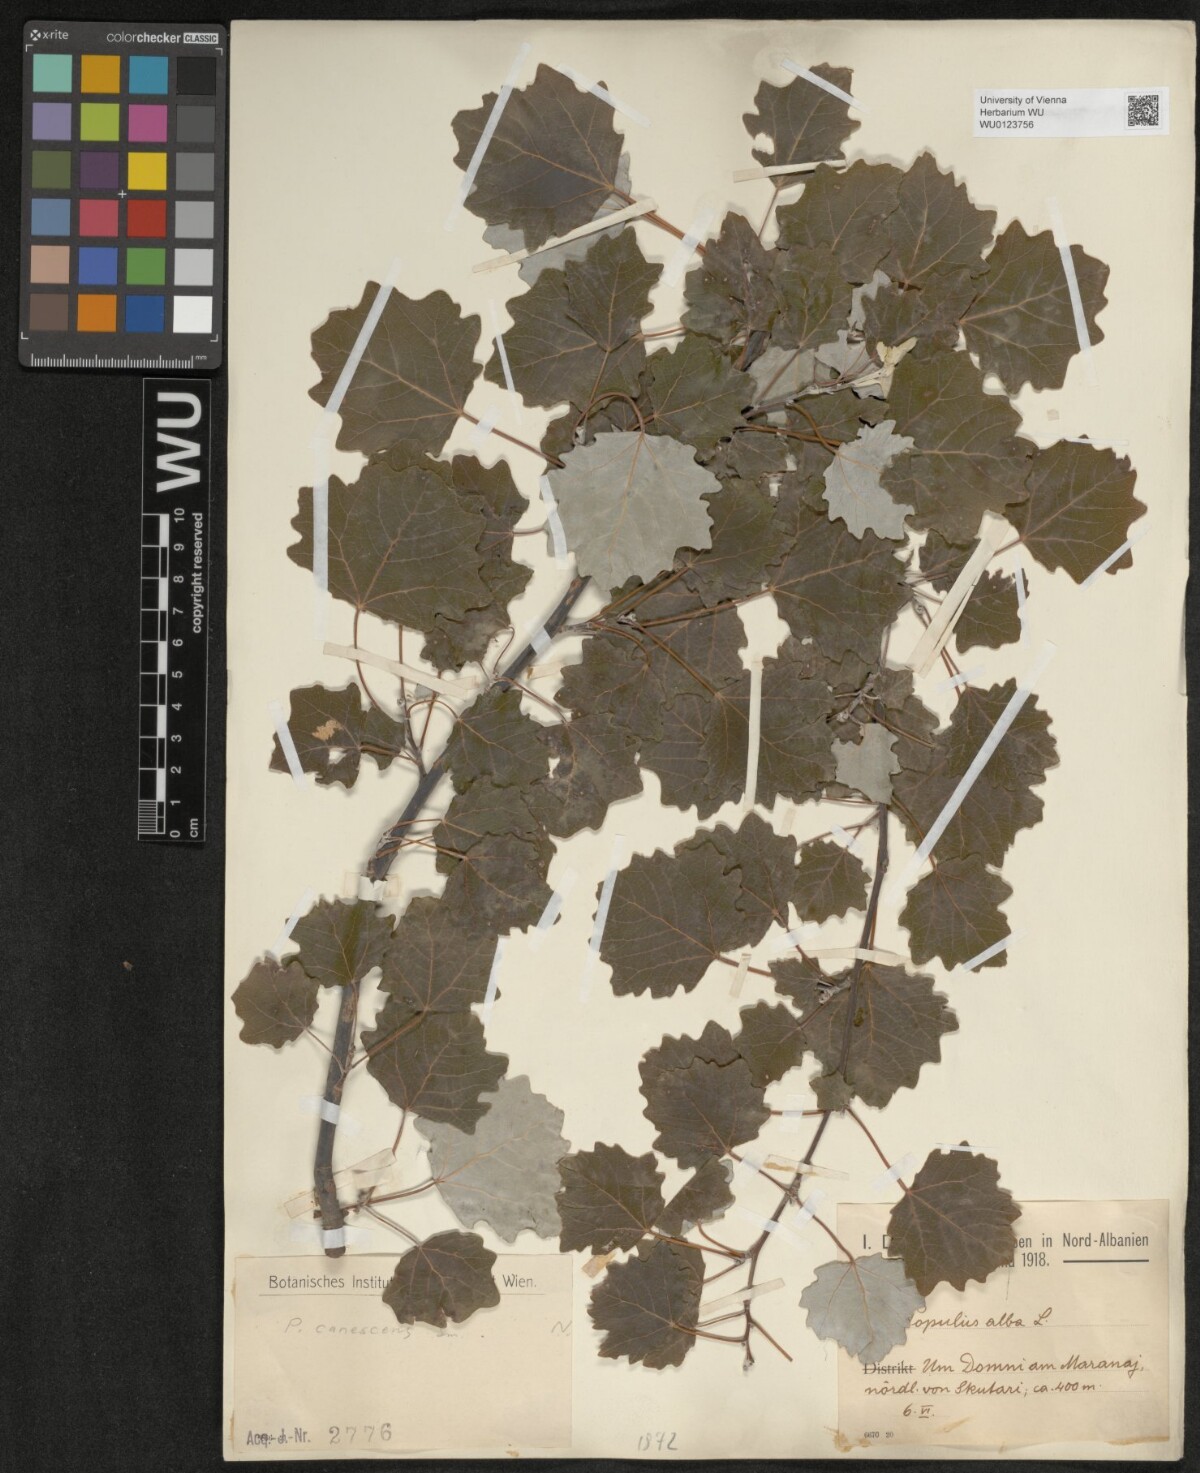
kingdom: Plantae
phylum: Tracheophyta
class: Magnoliopsida
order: Malpighiales
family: Salicaceae
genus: Populus
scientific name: Populus alba
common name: White poplar
